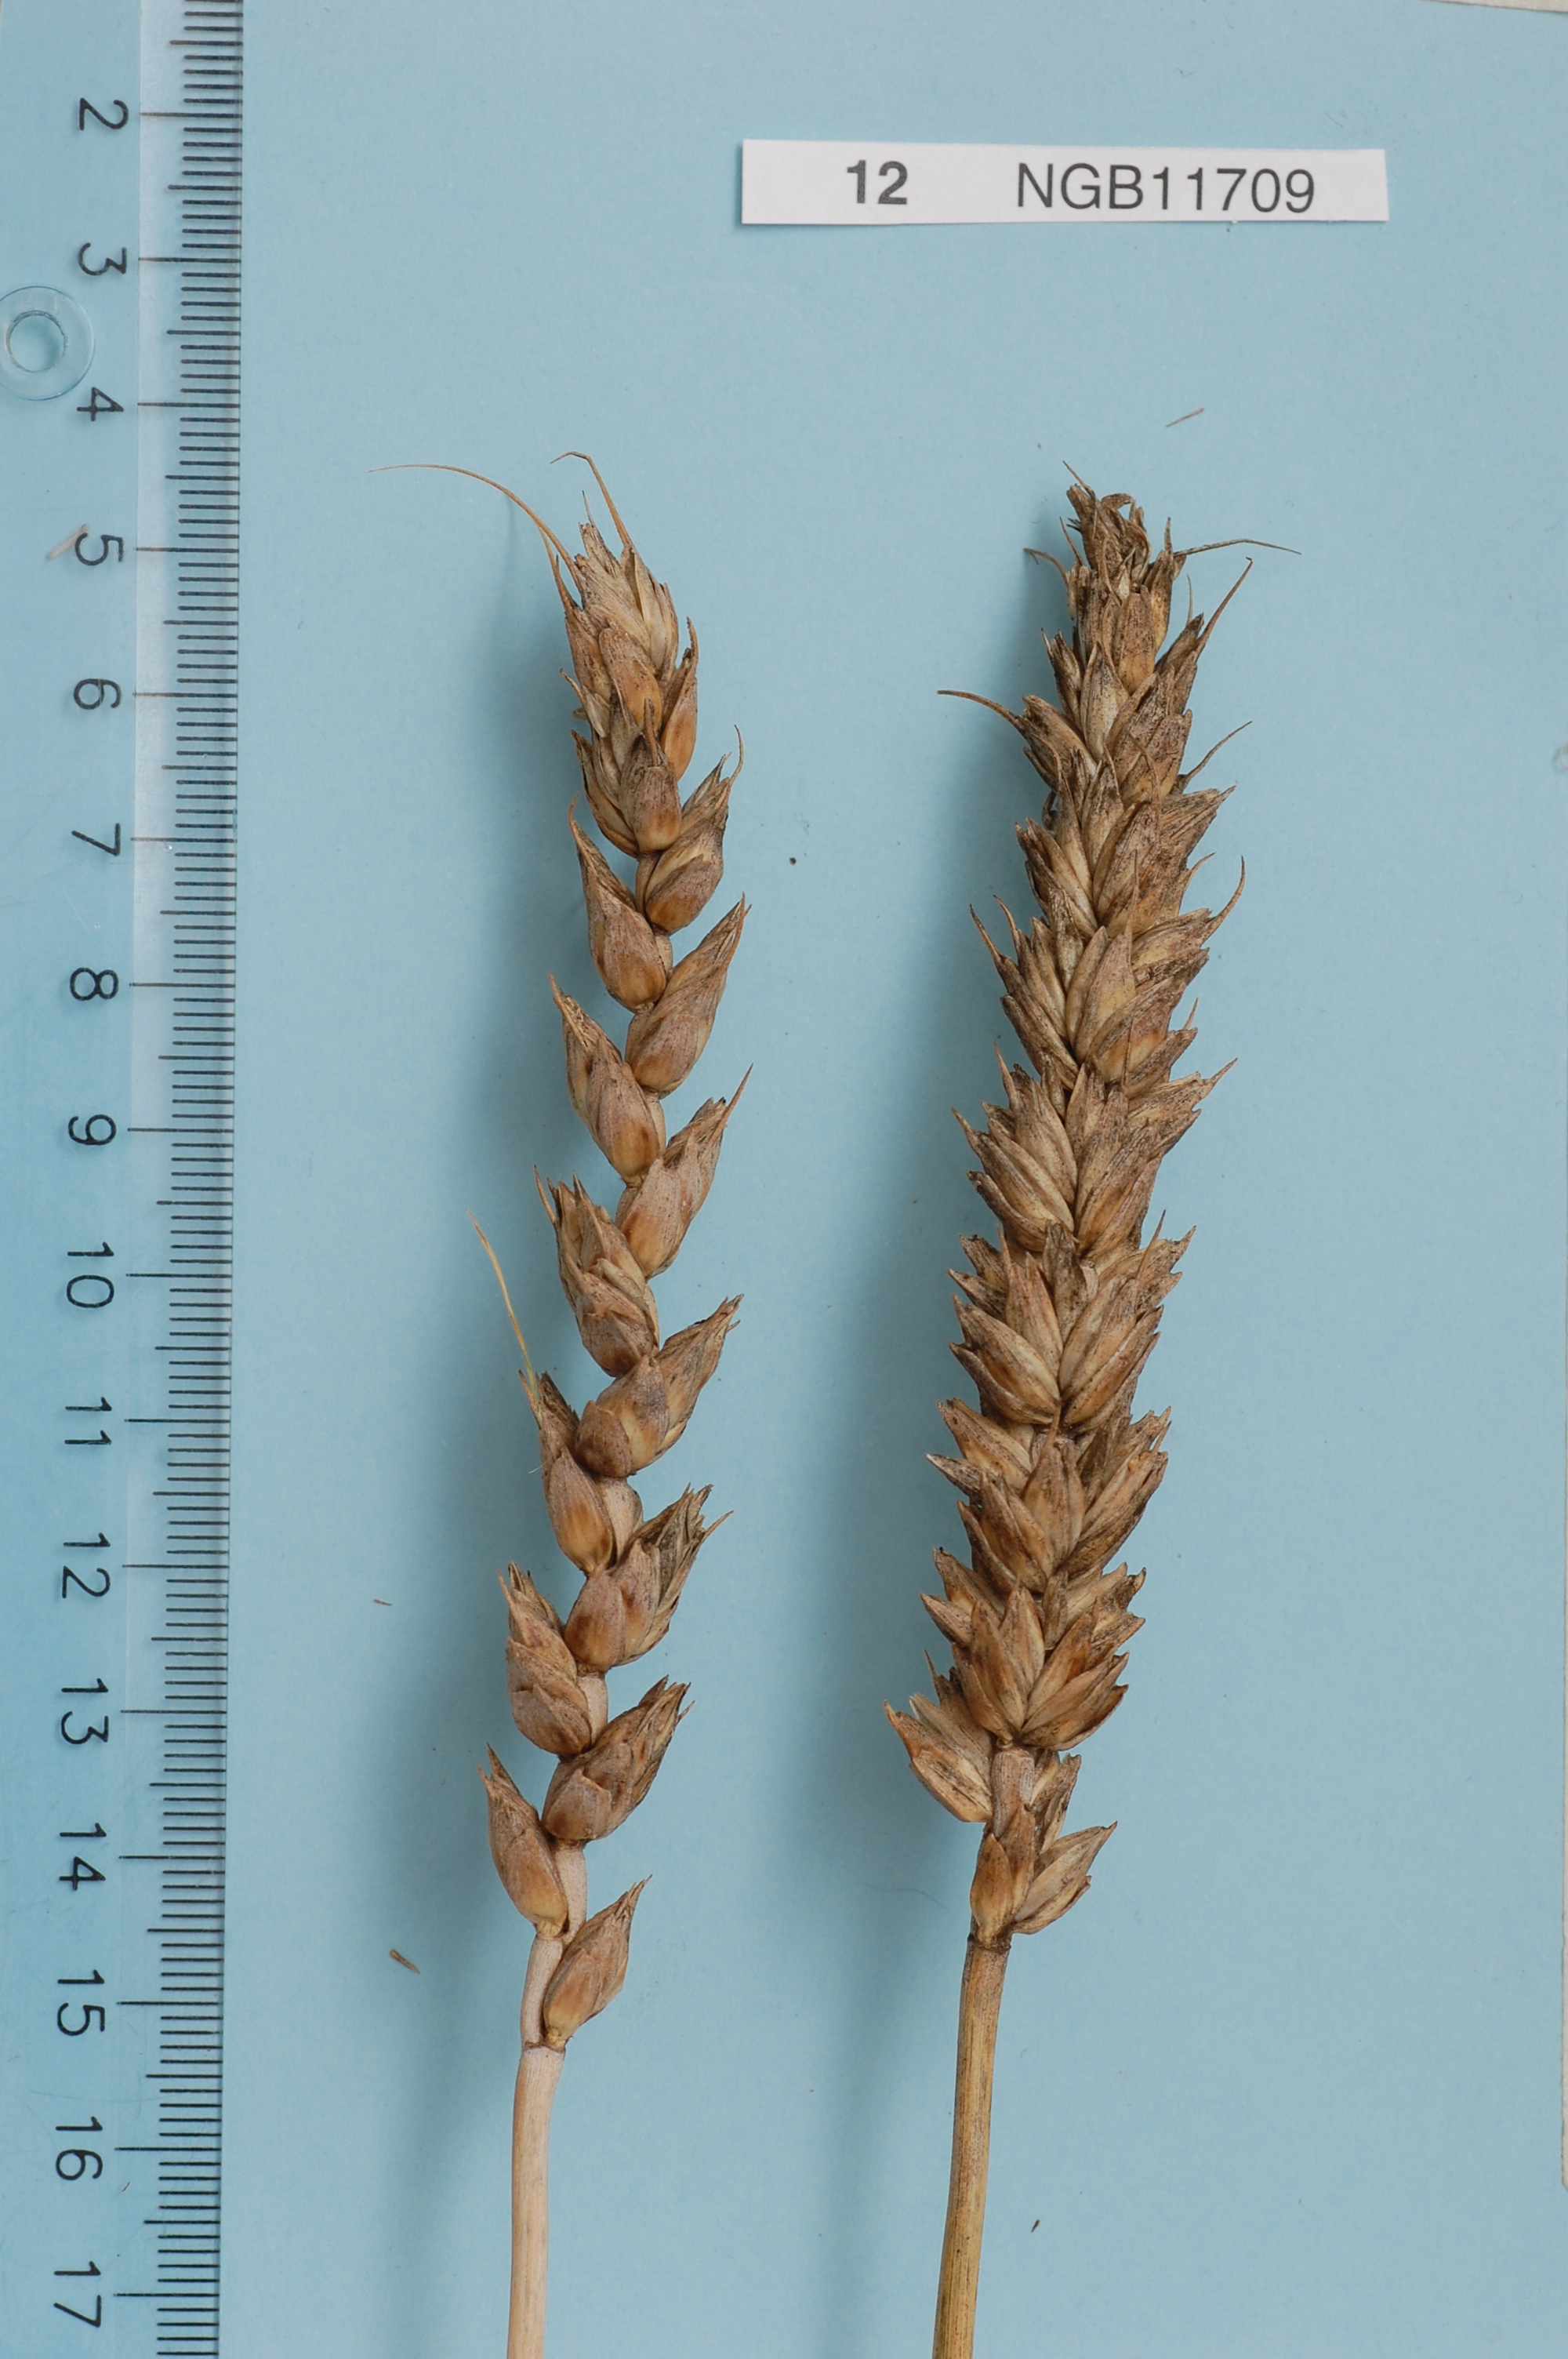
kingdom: Plantae
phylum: Tracheophyta
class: Liliopsida
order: Poales
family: Poaceae
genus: Triticum
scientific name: Triticum aestivum
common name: Common wheat
